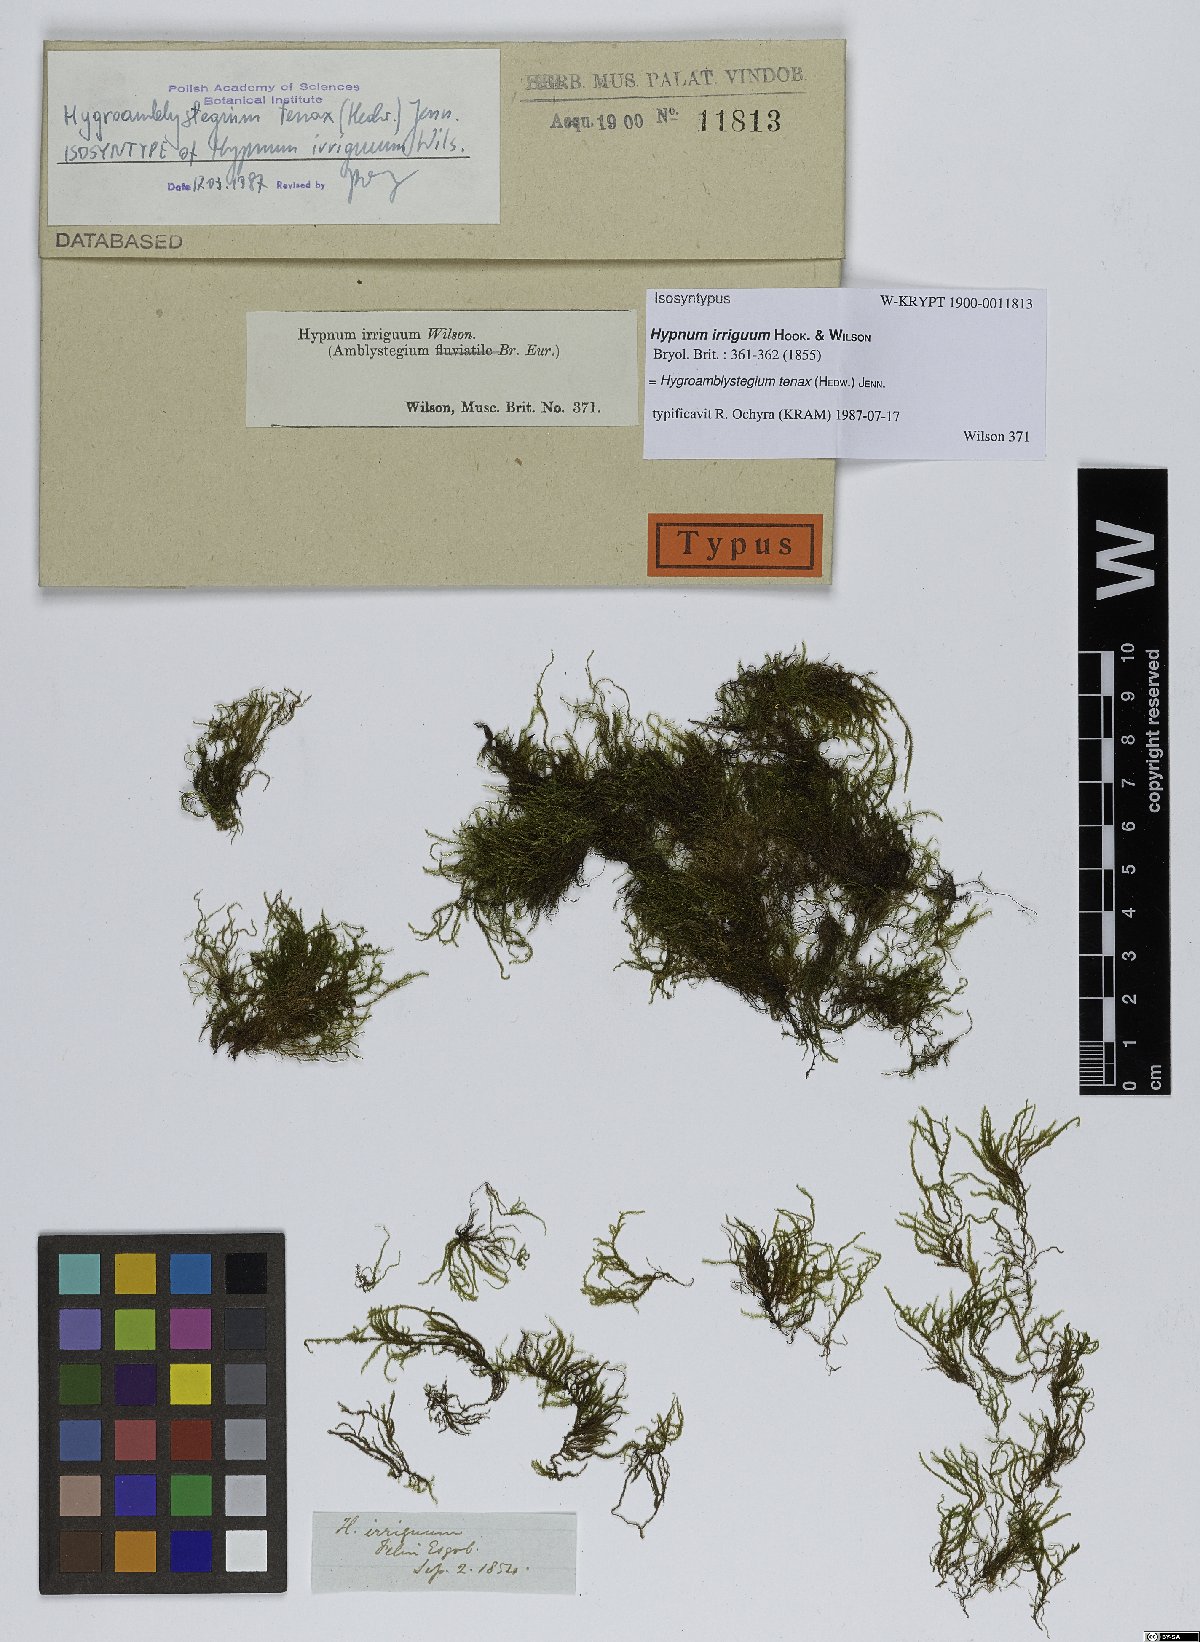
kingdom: Plantae
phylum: Bryophyta
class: Bryopsida
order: Hypnales
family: Amblystegiaceae
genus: Hygroamblystegium
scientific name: Hygroamblystegium tenax
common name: Fountain feather-moss
